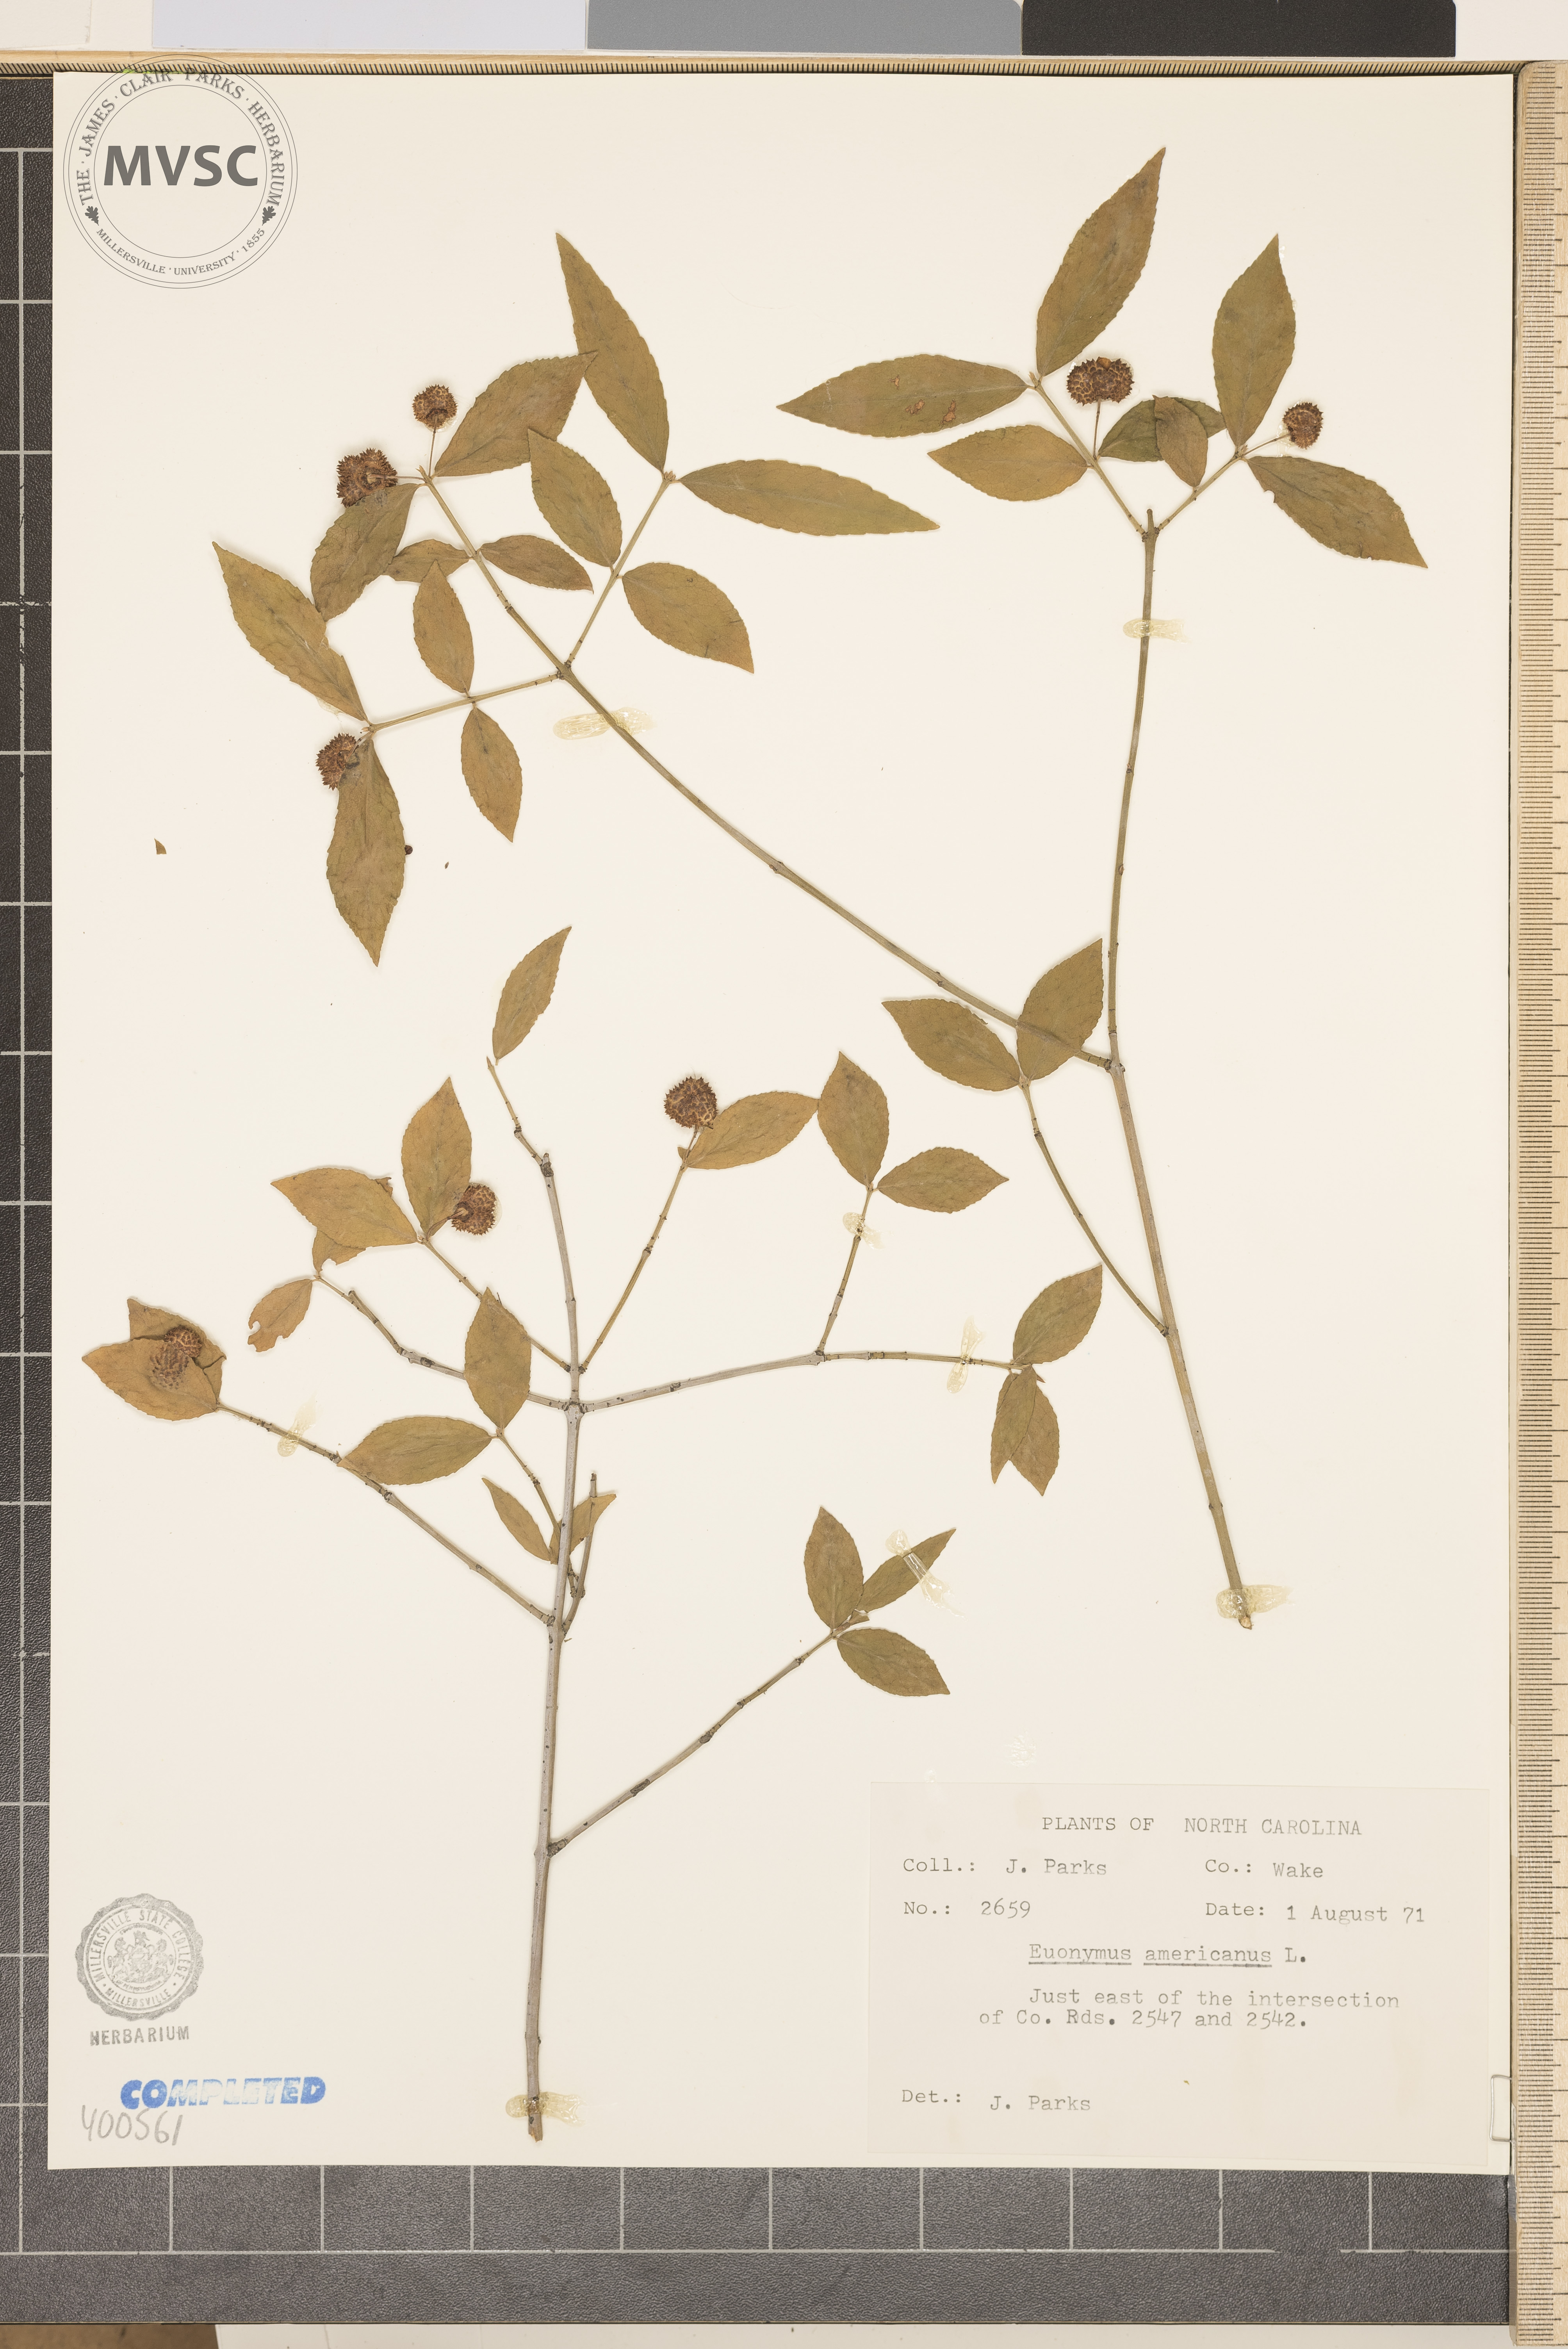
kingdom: Plantae
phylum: Tracheophyta
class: Magnoliopsida
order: Celastrales
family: Celastraceae
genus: Euonymus
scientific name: Euonymus americanus
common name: Bursting-heart
